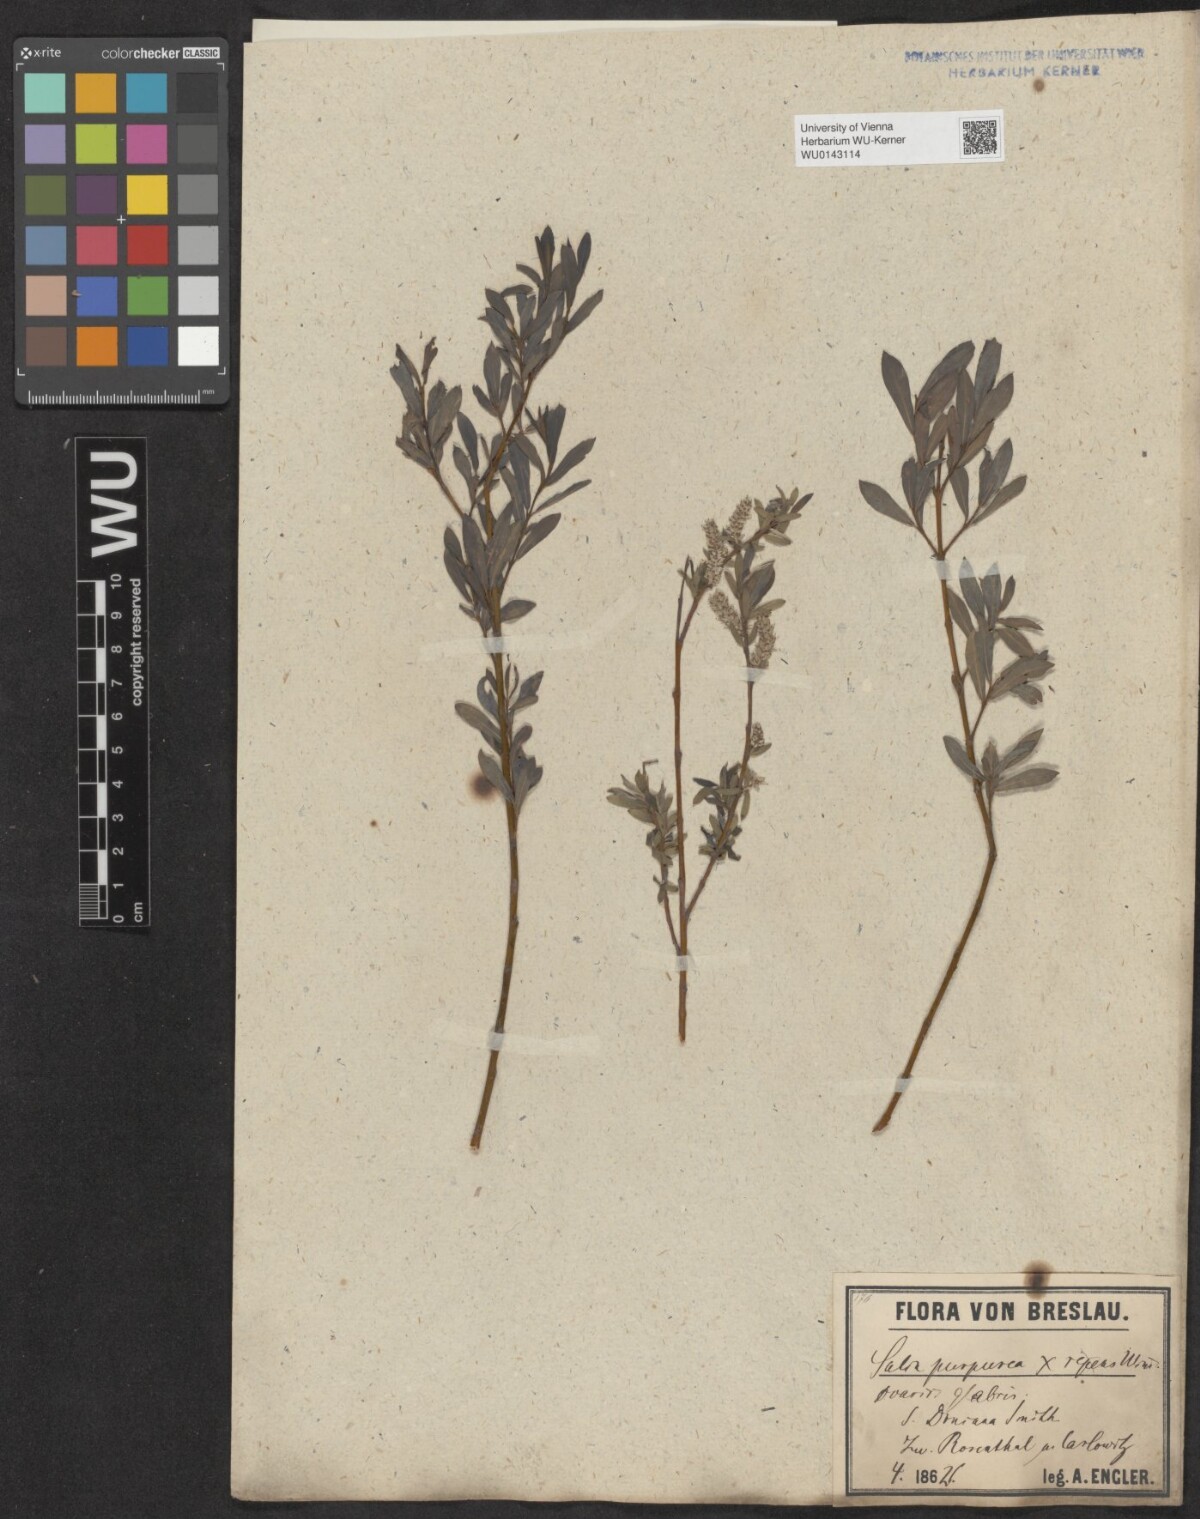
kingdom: Plantae
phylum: Tracheophyta
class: Magnoliopsida
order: Malpighiales
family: Salicaceae
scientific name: Salicaceae
